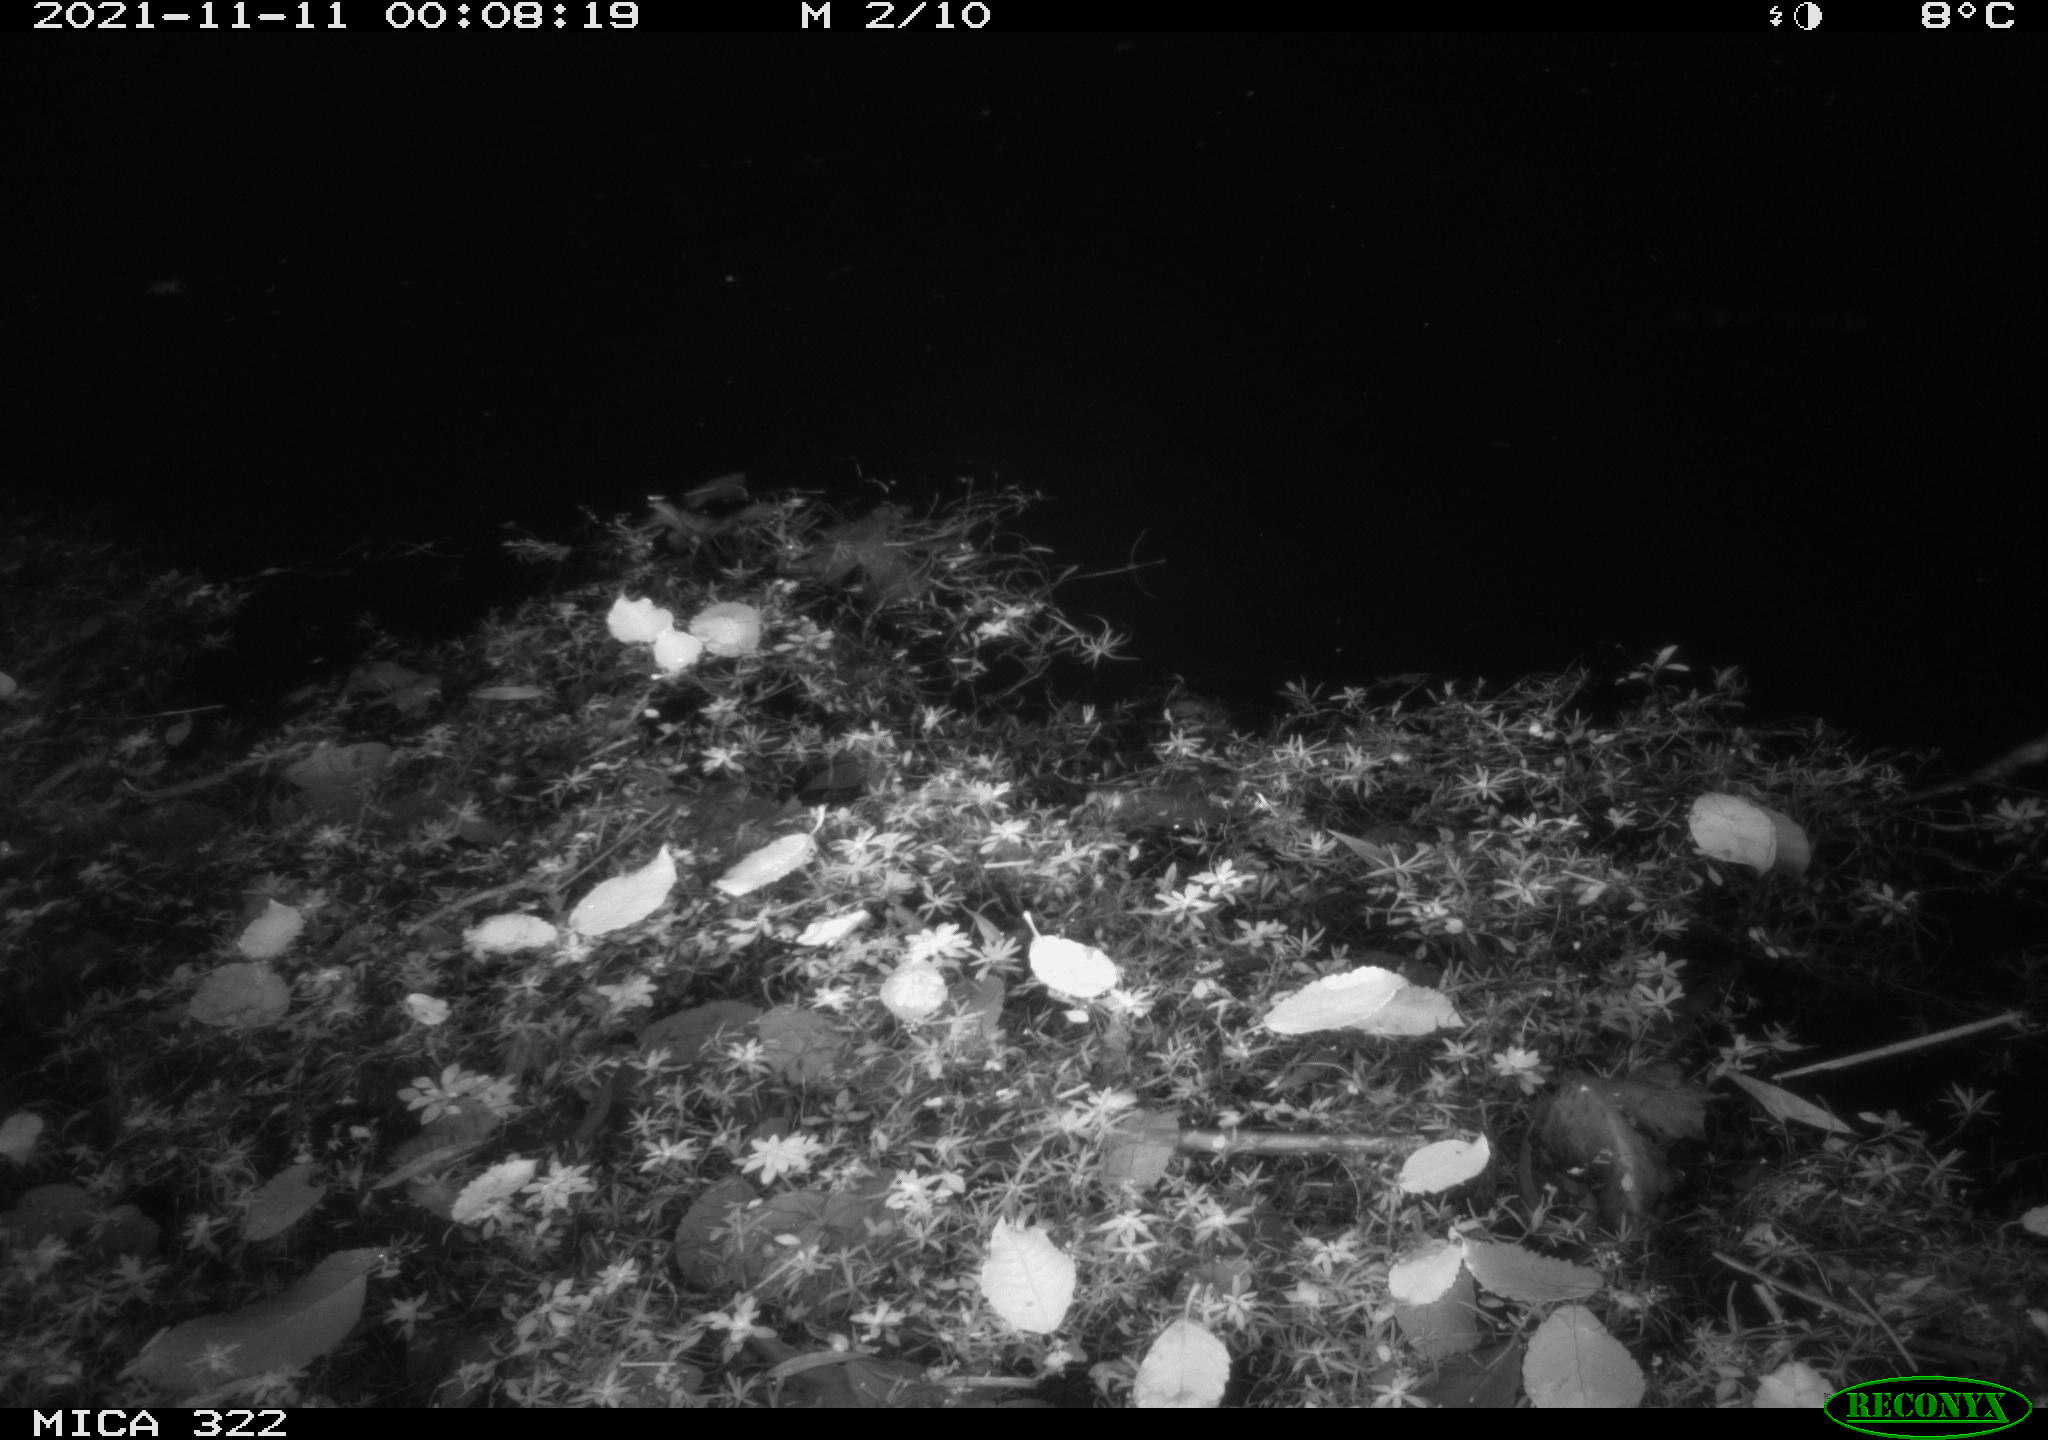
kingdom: Animalia
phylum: Chordata
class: Mammalia
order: Rodentia
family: Muridae
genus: Rattus
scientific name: Rattus norvegicus
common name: Brown rat
